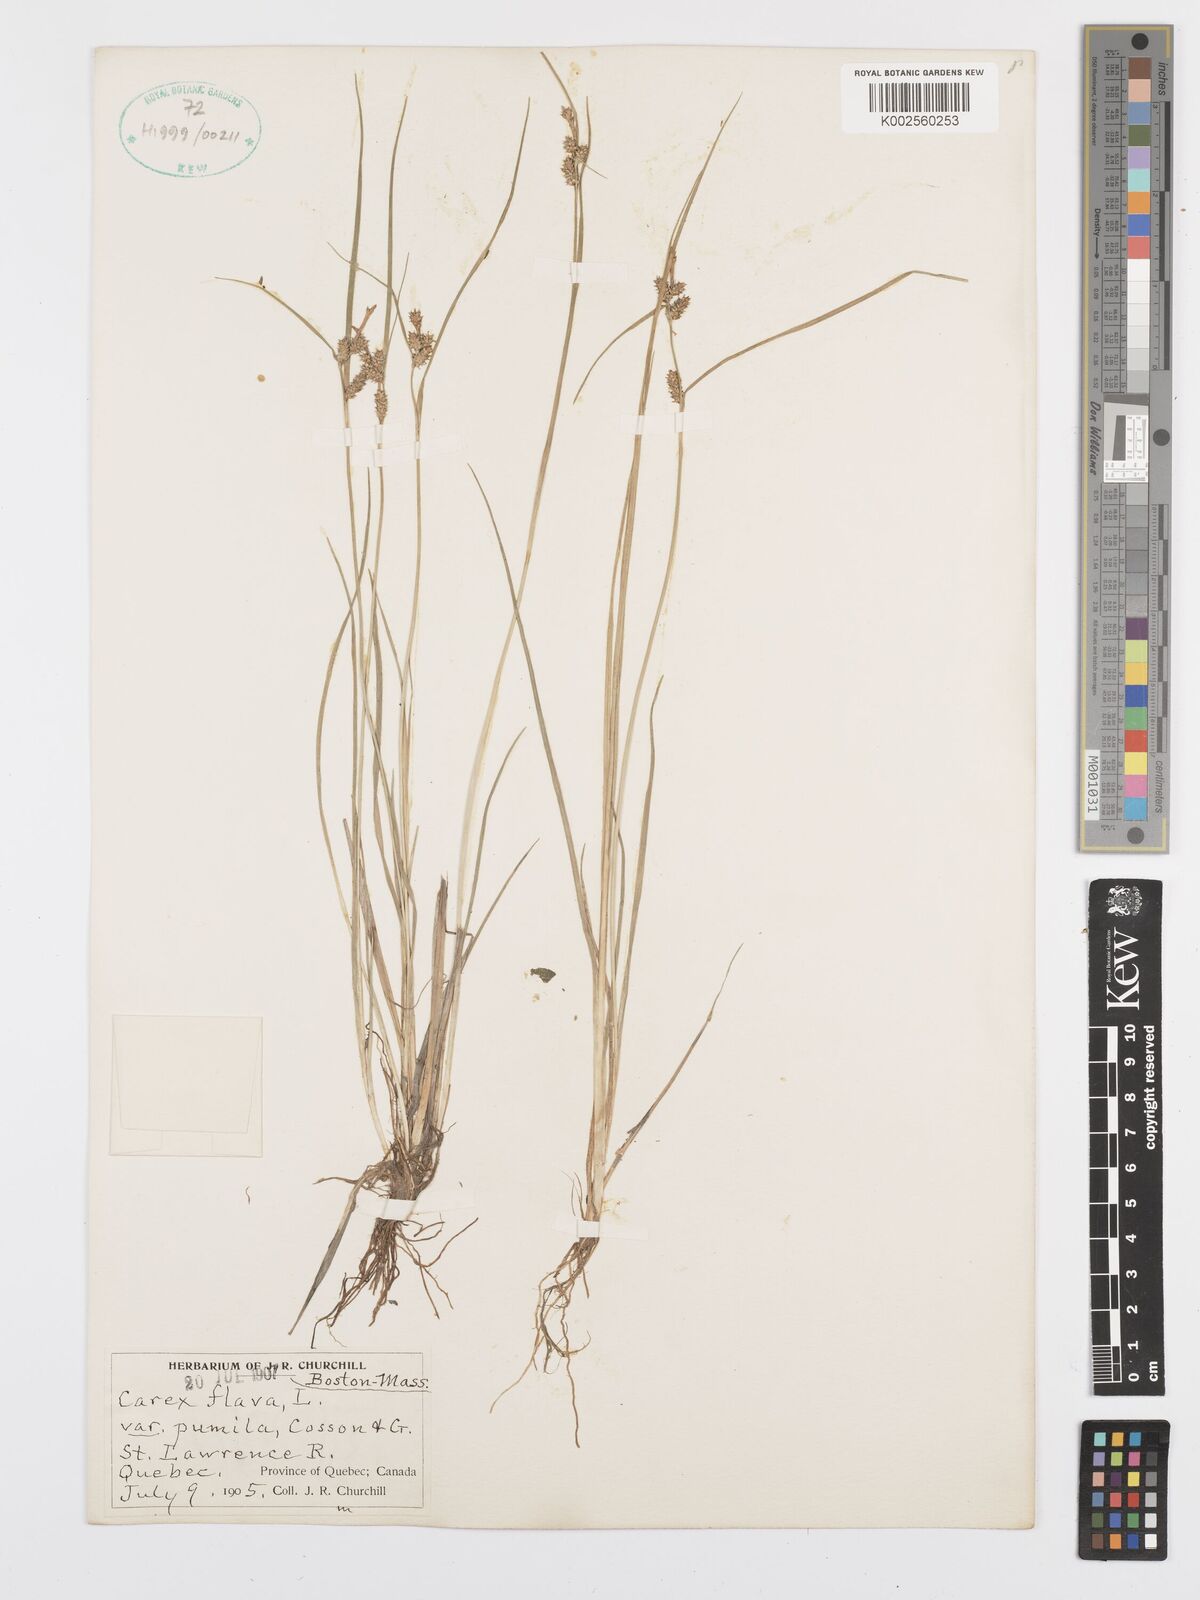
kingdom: Plantae
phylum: Tracheophyta
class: Liliopsida
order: Poales
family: Cyperaceae
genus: Carex
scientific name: Carex flava
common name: Large yellow-sedge
